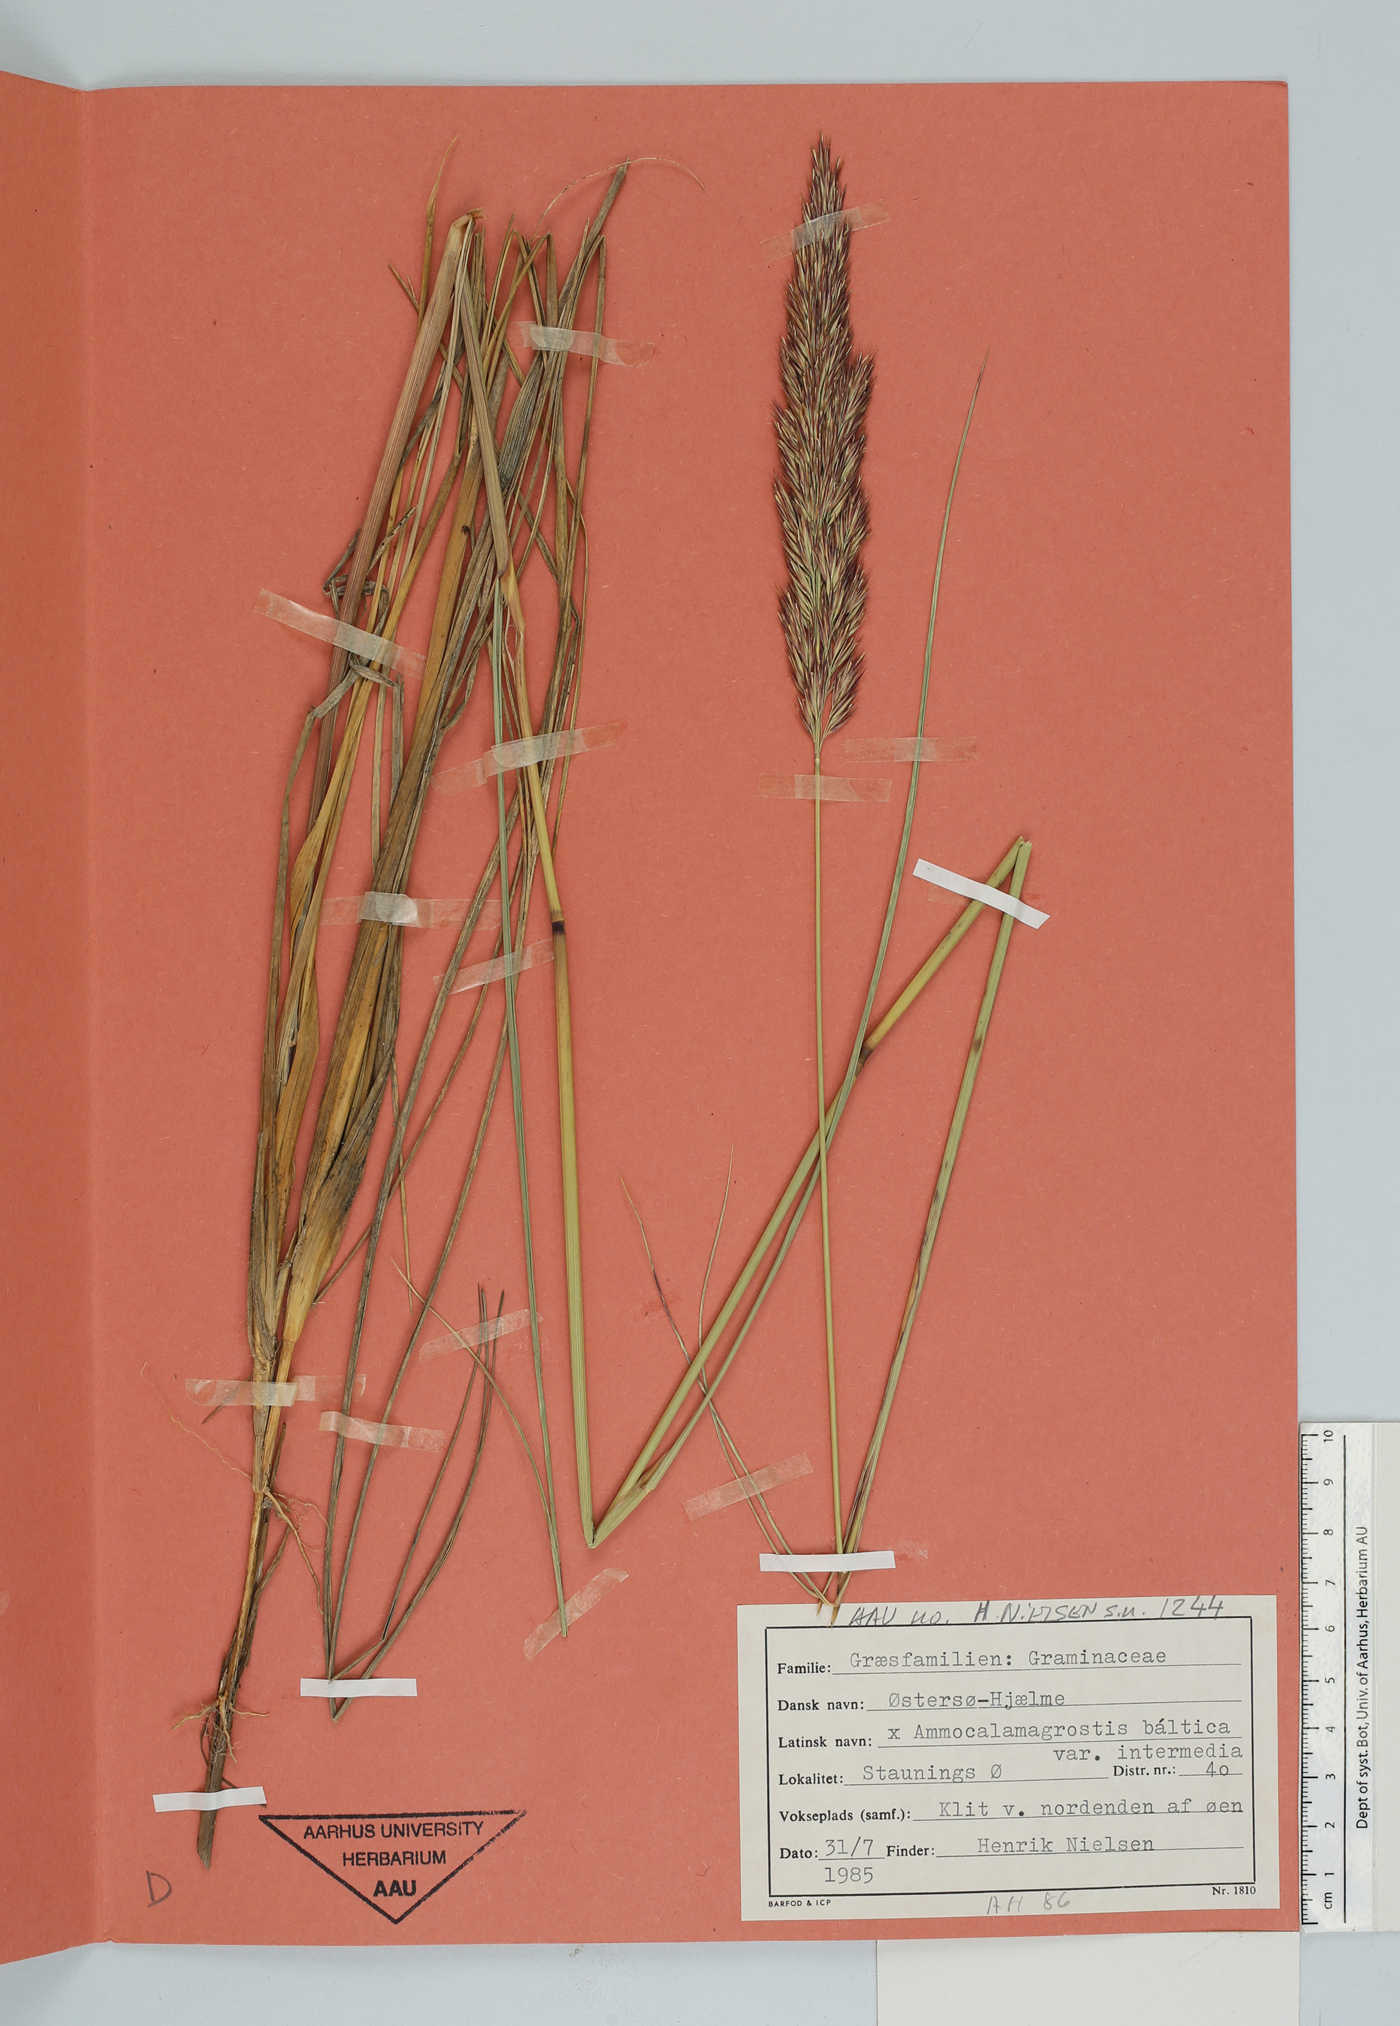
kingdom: Plantae
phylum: Tracheophyta
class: Liliopsida
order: Poales
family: Poaceae
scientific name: Poaceae
